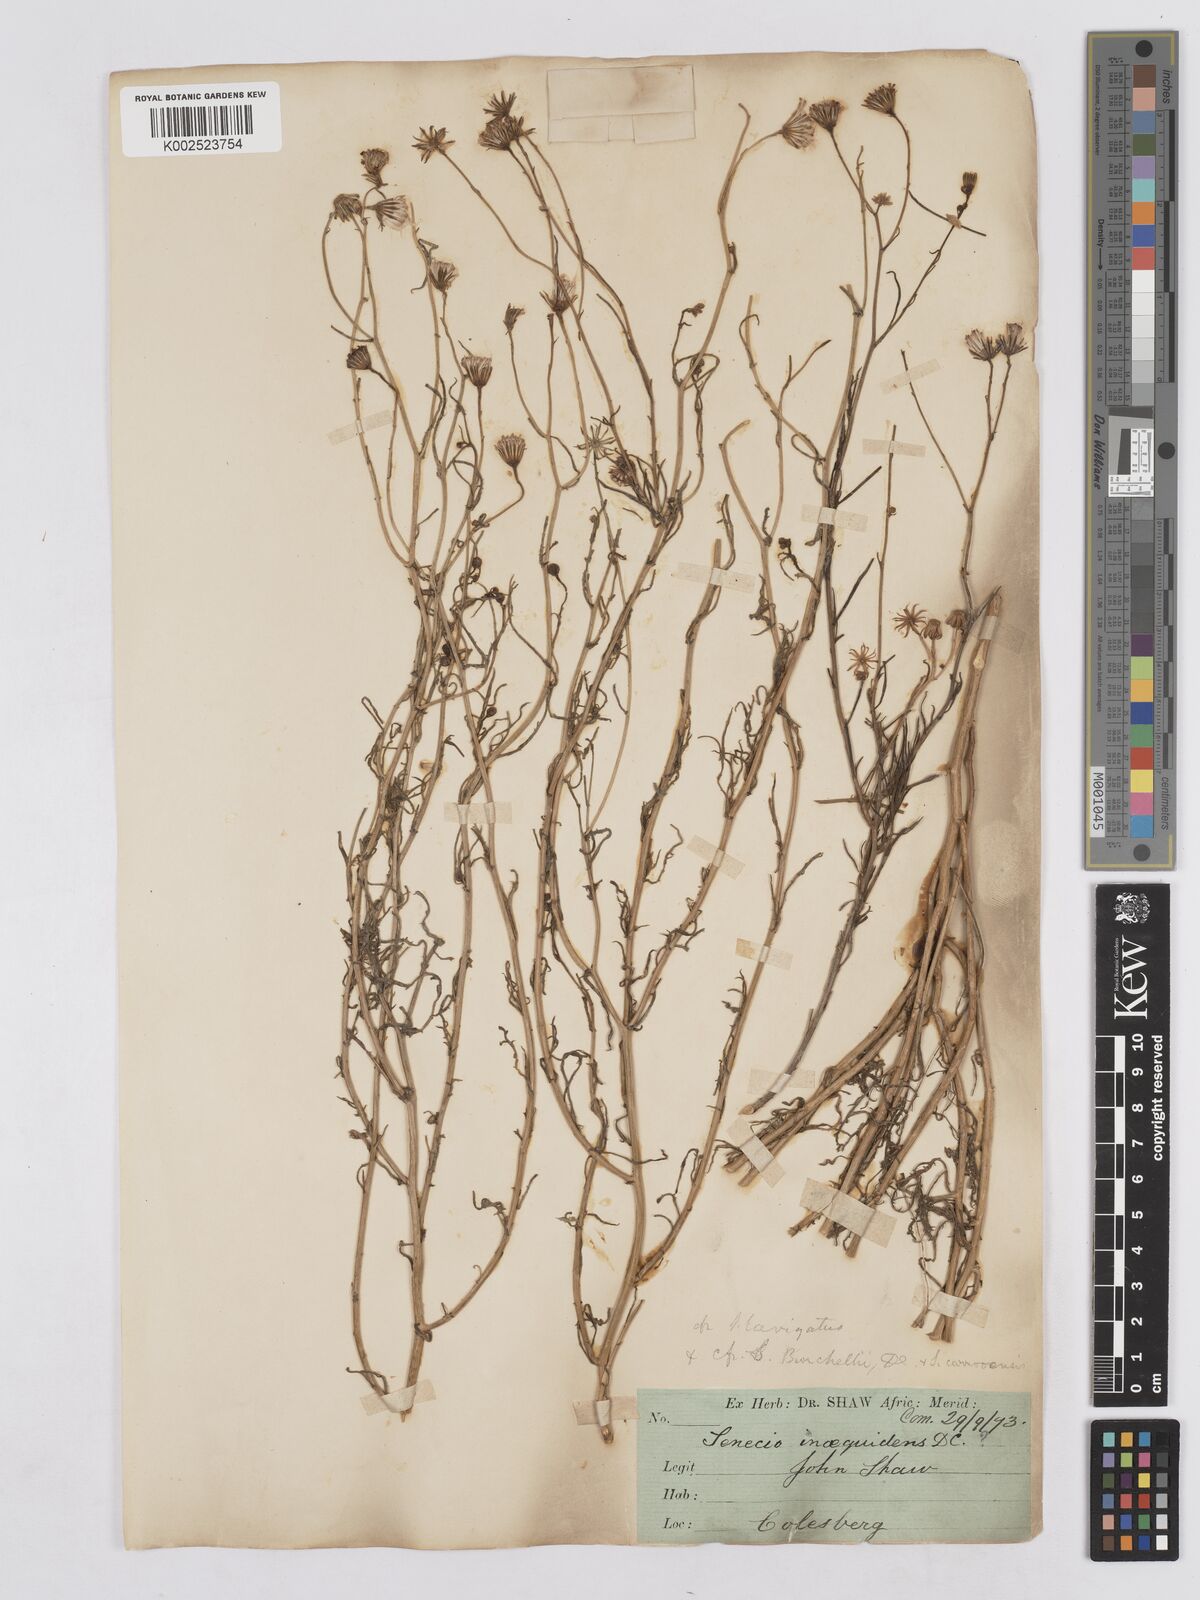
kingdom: Plantae
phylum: Tracheophyta
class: Magnoliopsida
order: Asterales
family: Asteraceae
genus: Senecio
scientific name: Senecio burchellii
